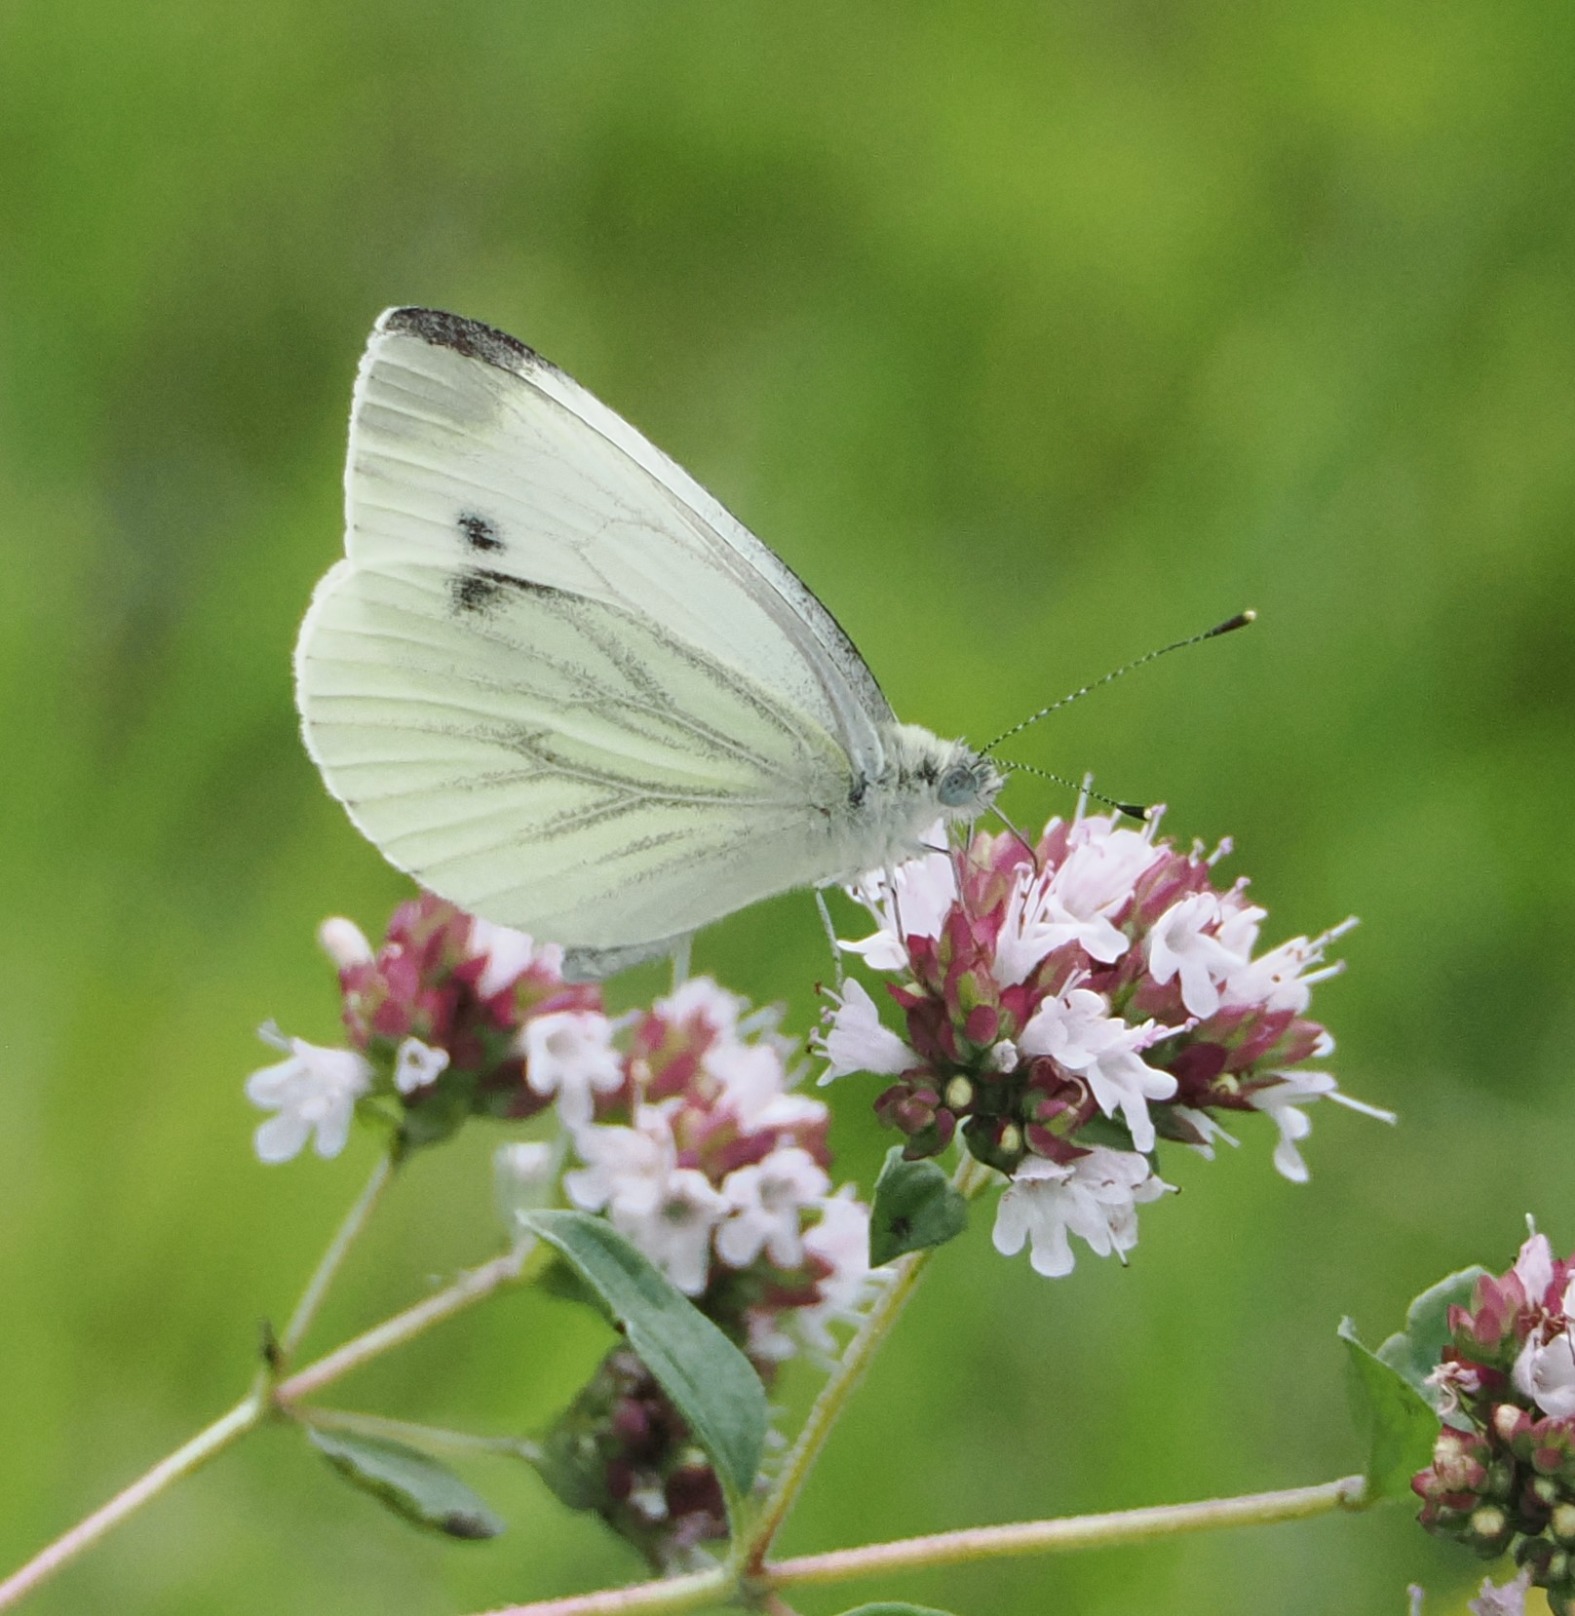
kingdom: Animalia
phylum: Arthropoda
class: Insecta
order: Lepidoptera
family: Pieridae
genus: Pieris
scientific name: Pieris napi
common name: Grønåret kålsommerfugl
